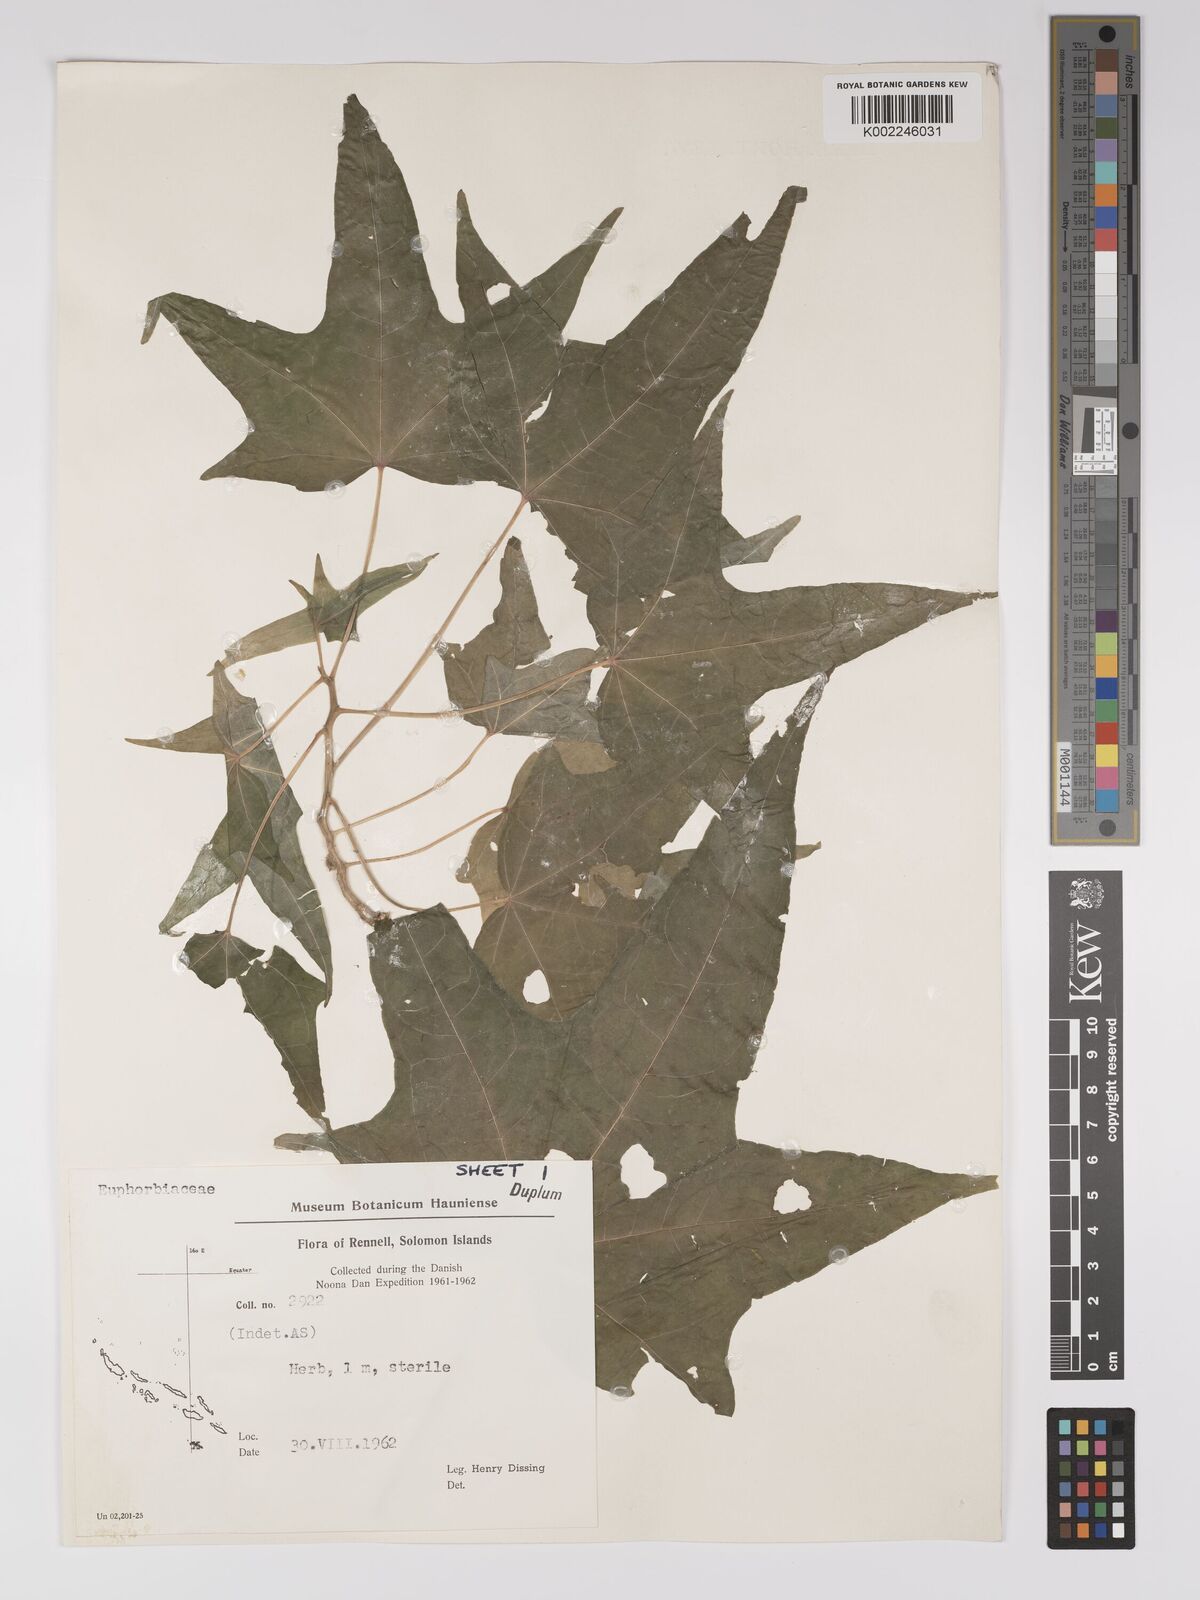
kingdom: Plantae
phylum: Tracheophyta
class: Magnoliopsida
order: Malpighiales
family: Euphorbiaceae
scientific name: Euphorbiaceae
